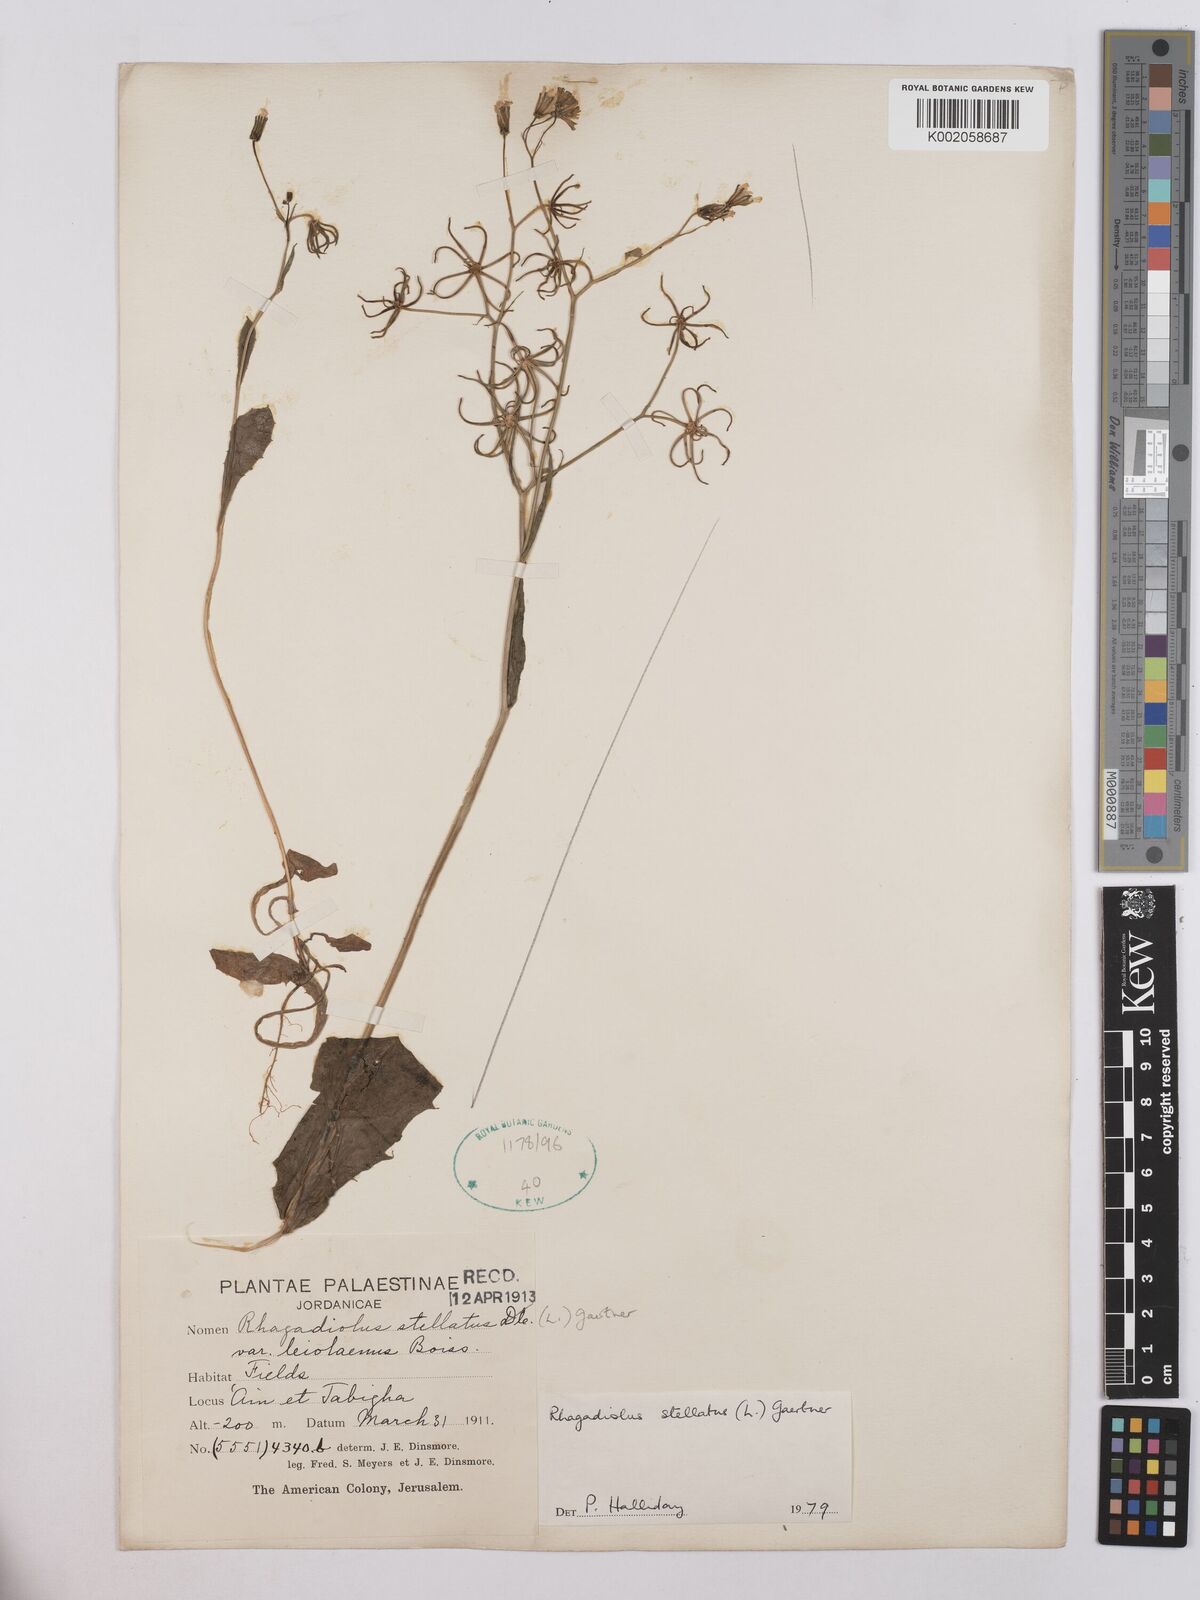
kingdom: Plantae
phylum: Tracheophyta
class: Magnoliopsida
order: Asterales
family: Asteraceae
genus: Rhagadiolus
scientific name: Rhagadiolus stellatus
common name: Star hawkbit
